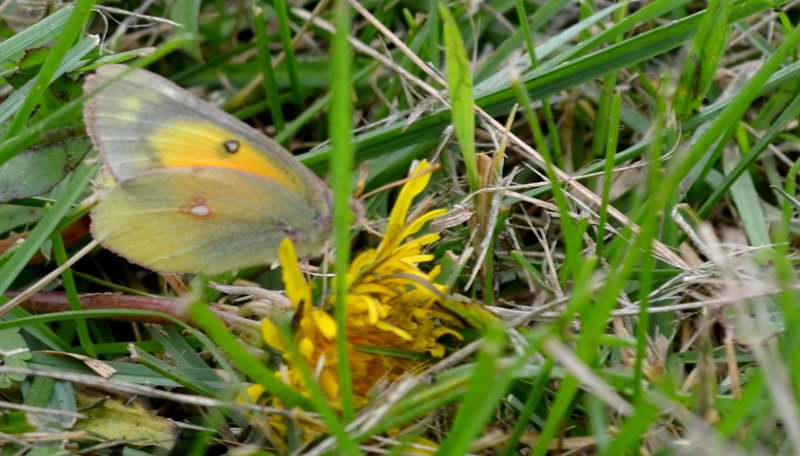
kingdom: Animalia
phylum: Arthropoda
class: Insecta
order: Lepidoptera
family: Pieridae
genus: Colias
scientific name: Colias eurytheme
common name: Orange Sulphur
